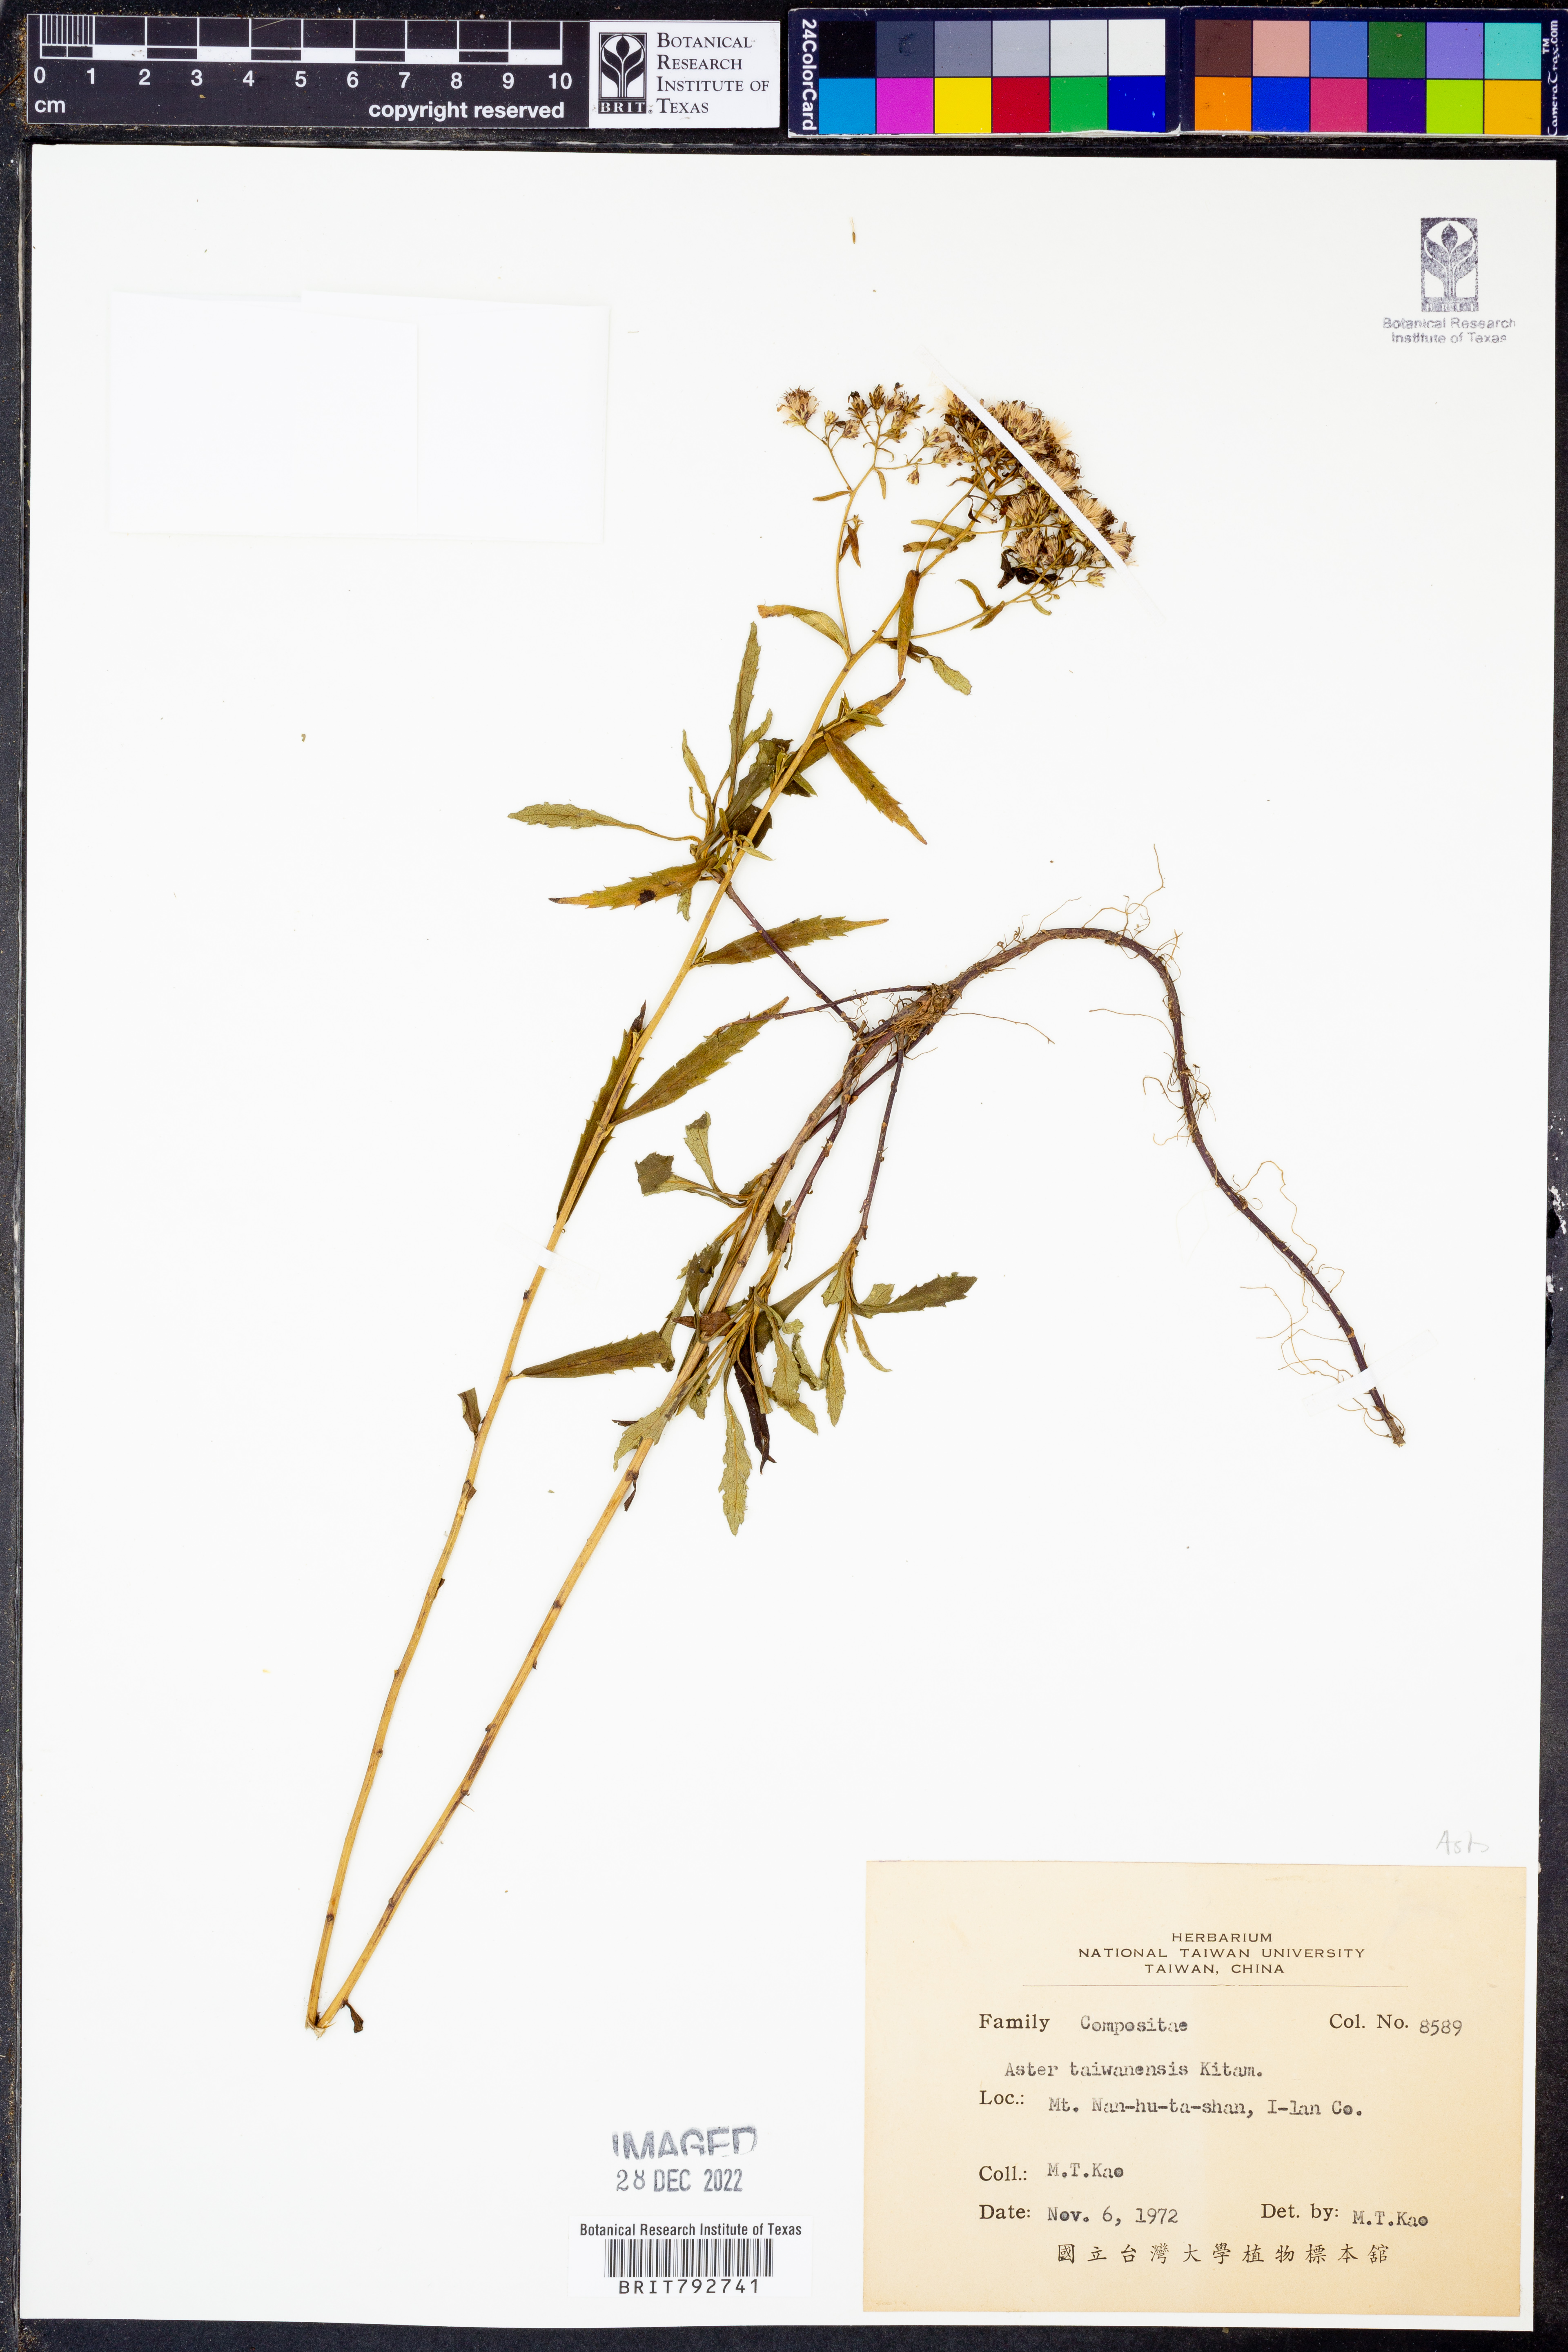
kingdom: Plantae
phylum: Tracheophyta
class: Magnoliopsida
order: Asterales
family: Asteraceae
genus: Aster
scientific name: Aster taiwanensis
